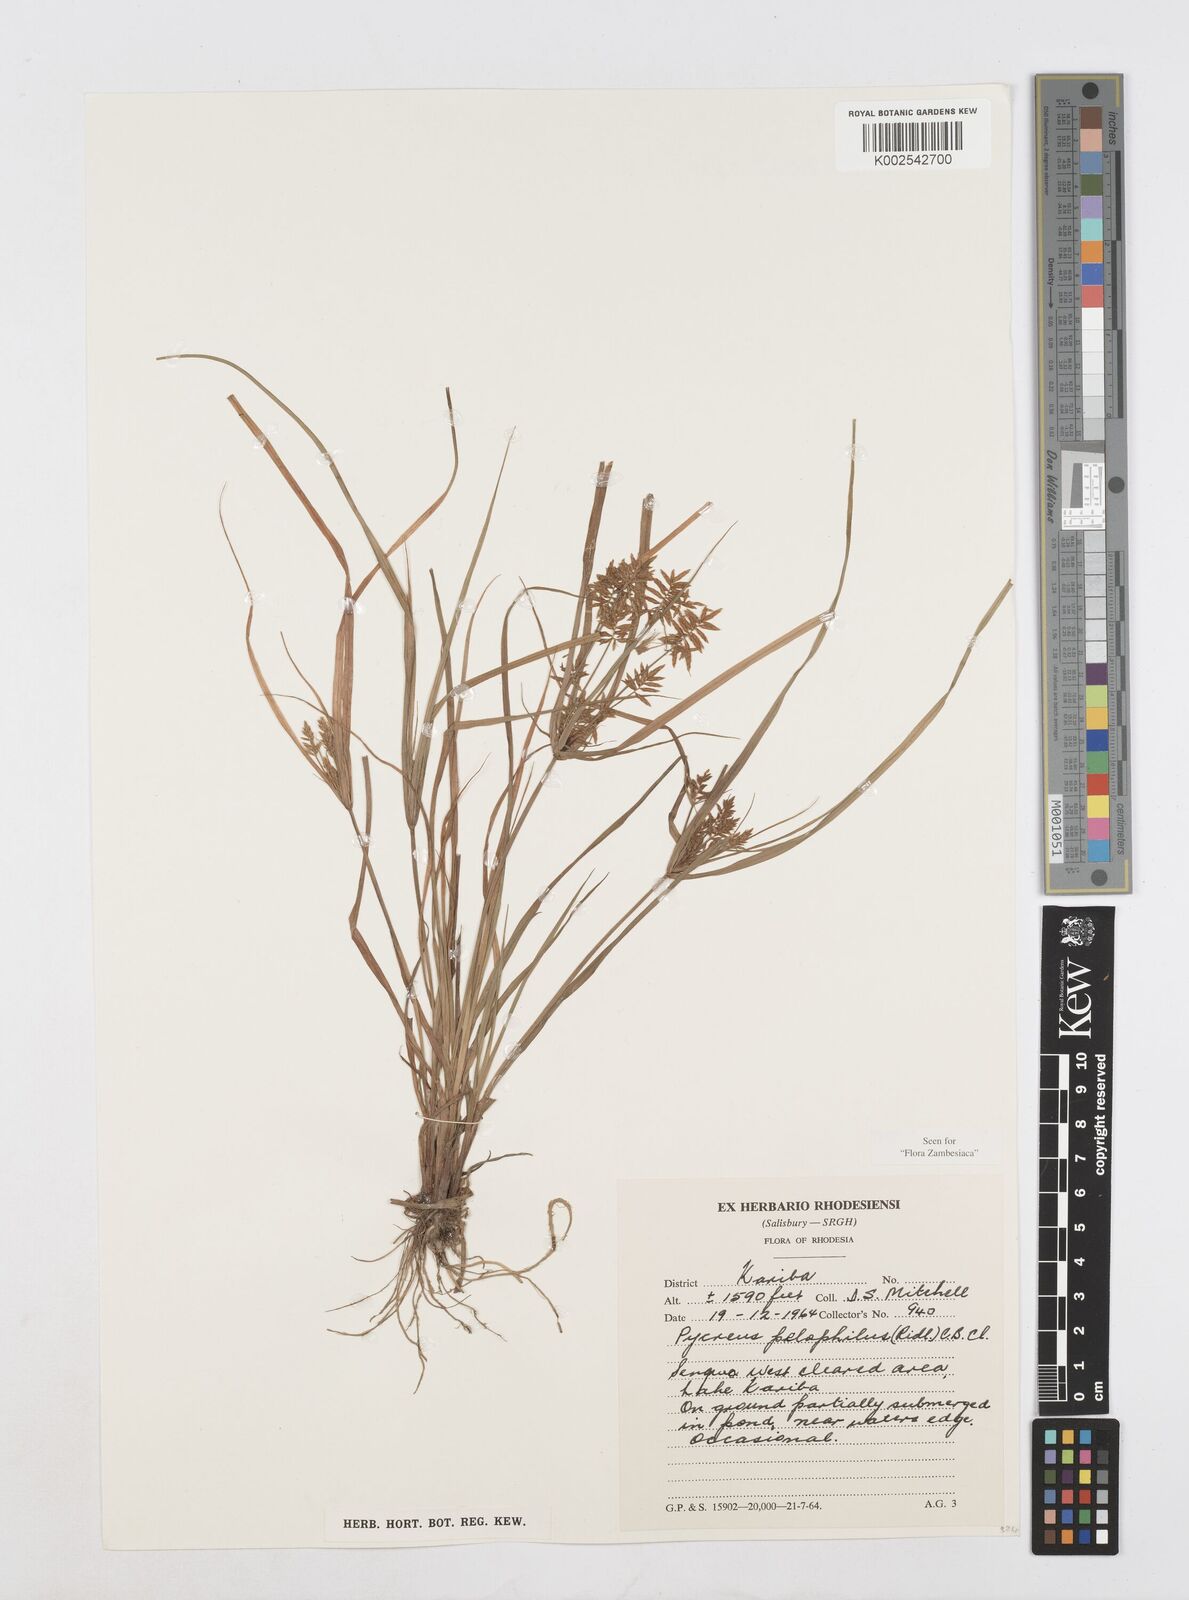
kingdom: Plantae
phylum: Tracheophyta
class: Liliopsida
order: Poales
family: Cyperaceae
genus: Cyperus
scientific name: Cyperus pelophilus
